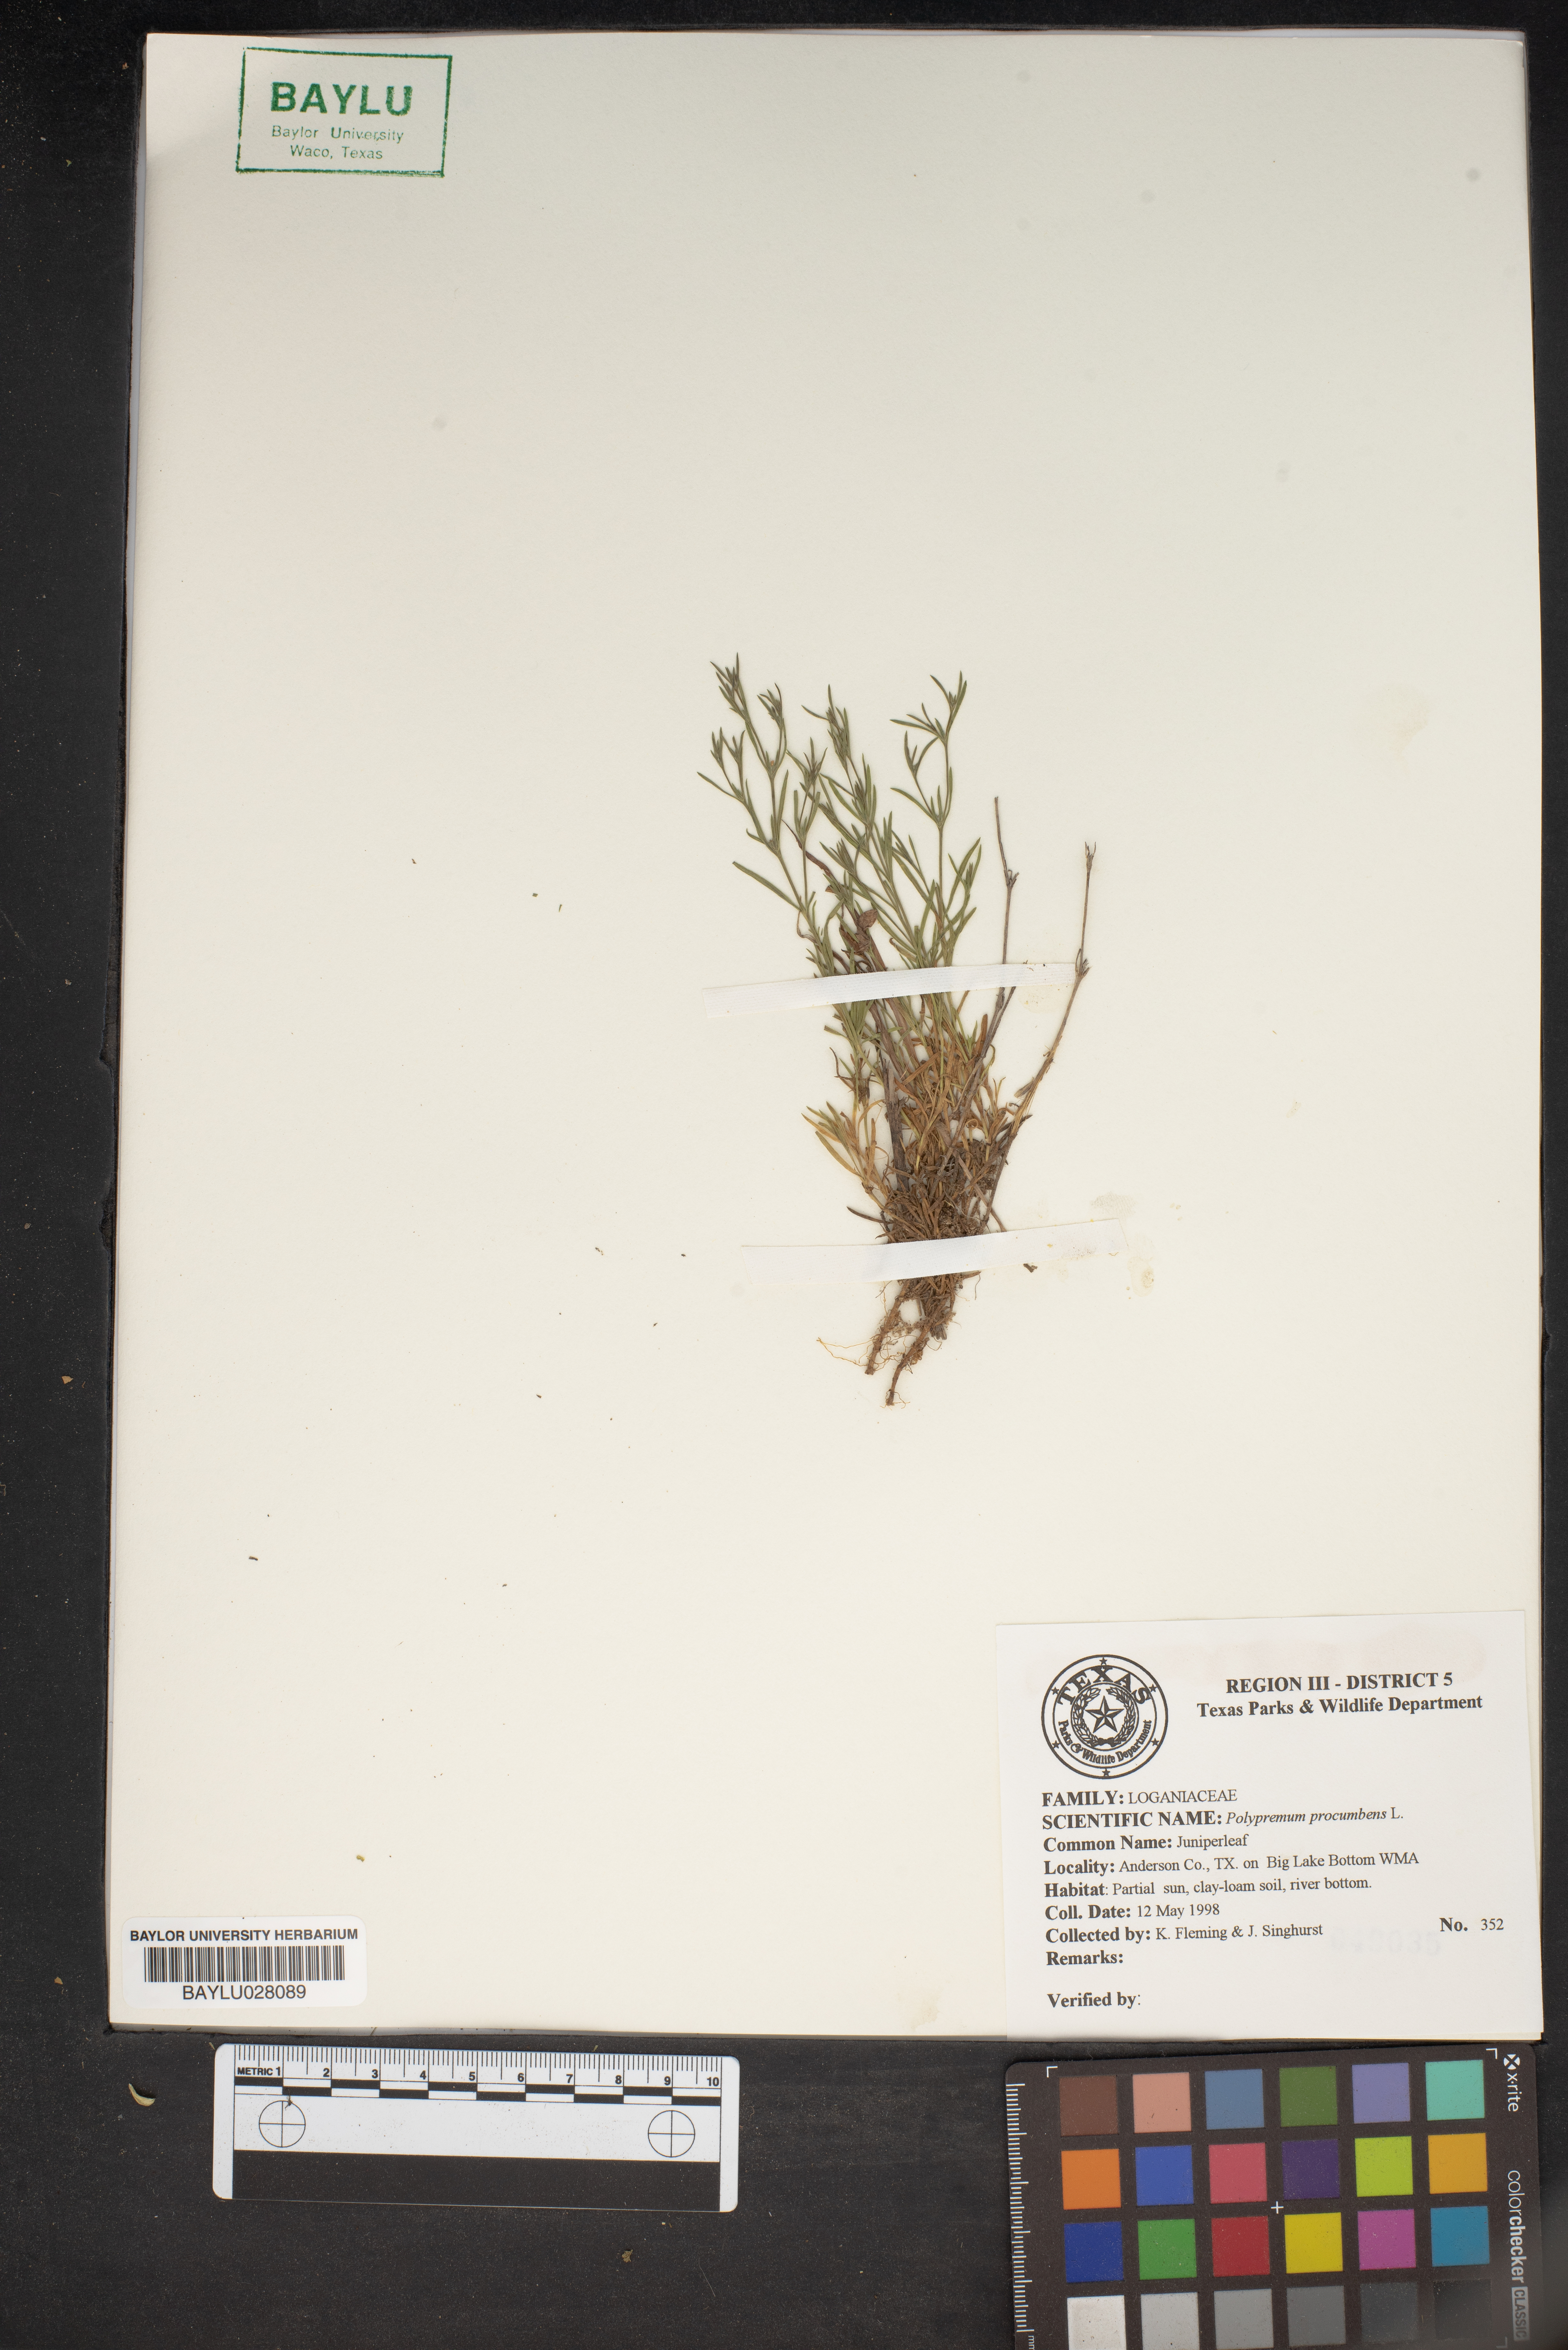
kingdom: Plantae
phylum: Tracheophyta
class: Magnoliopsida
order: Lamiales
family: Tetrachondraceae
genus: Polypremum
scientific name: Polypremum procumbens
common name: Juniper-leaf
